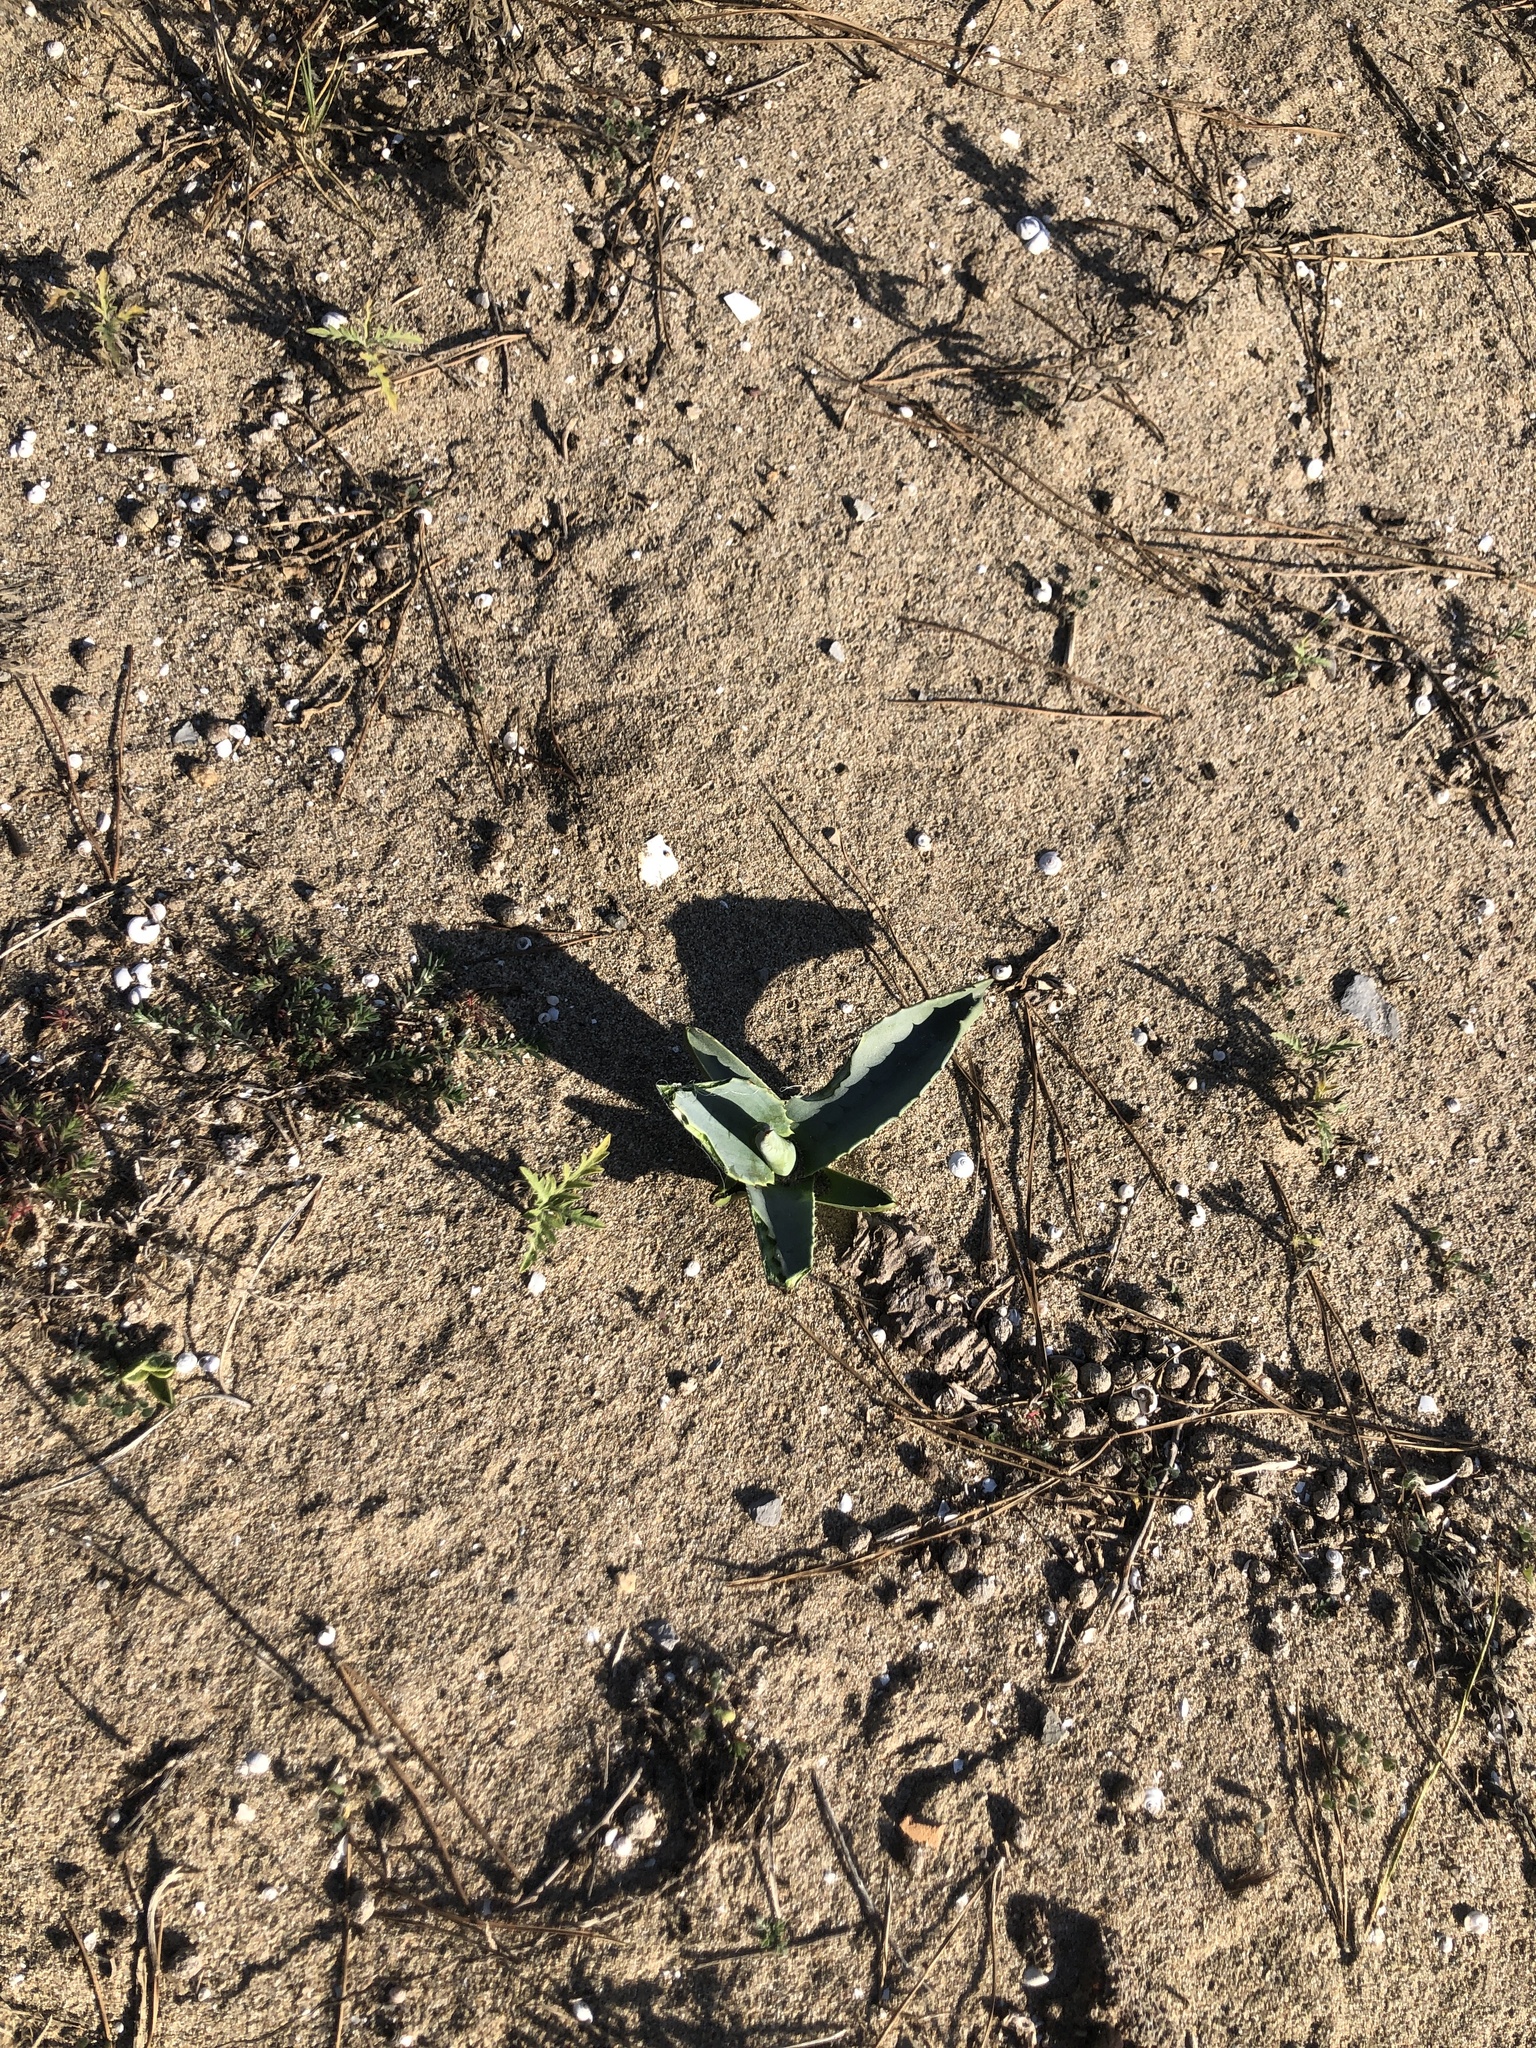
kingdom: Plantae
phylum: Tracheophyta
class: Liliopsida
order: Asparagales
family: Asparagaceae
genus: Agave
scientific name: Agave americana
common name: Centuryplant
